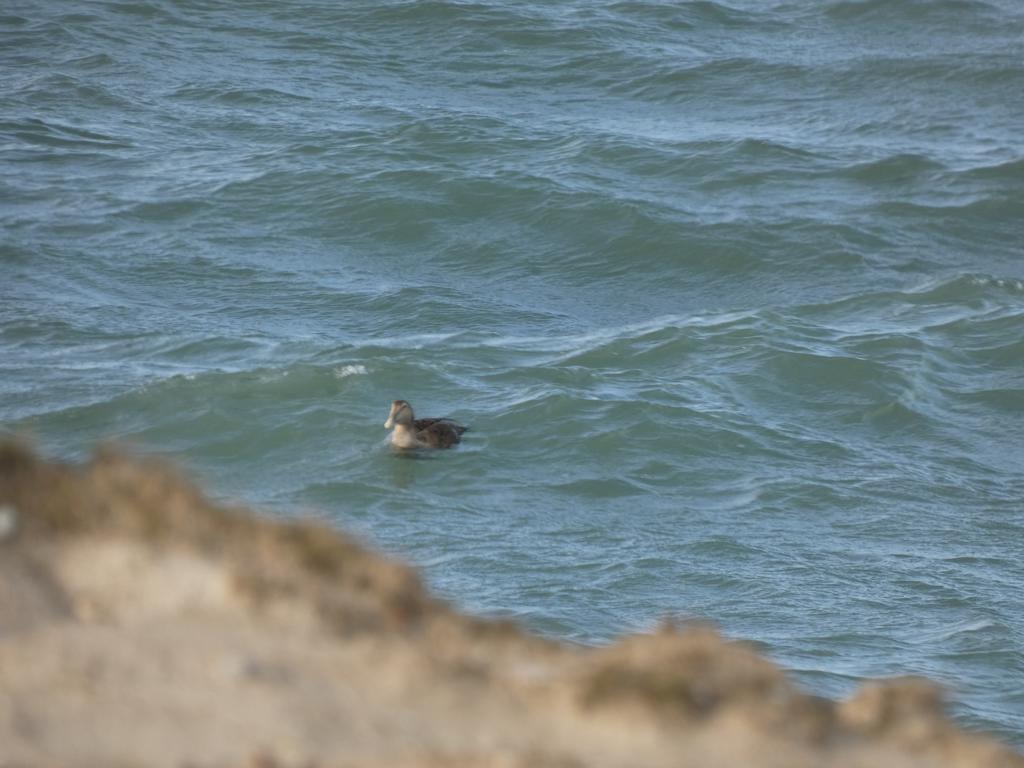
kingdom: Animalia
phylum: Chordata
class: Aves
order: Anseriformes
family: Anatidae
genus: Somateria
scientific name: Somateria mollissima
